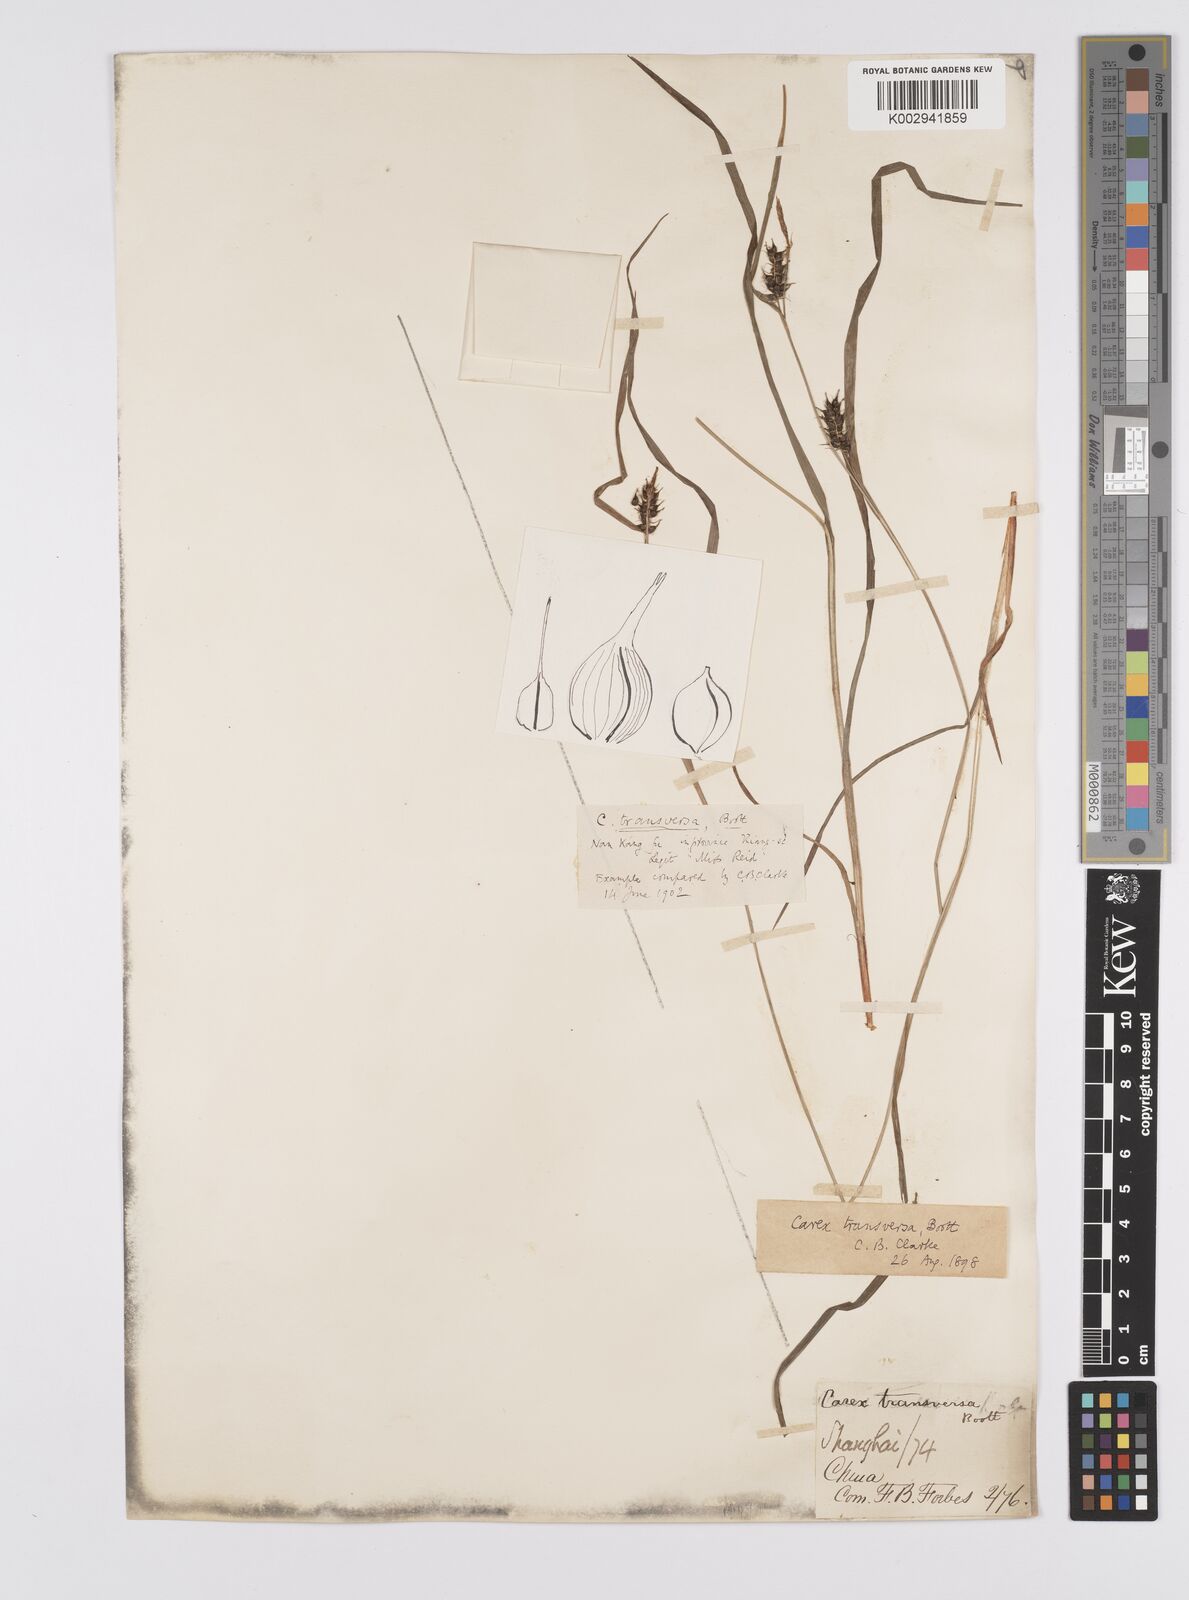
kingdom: Plantae
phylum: Tracheophyta
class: Liliopsida
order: Poales
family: Cyperaceae
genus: Carex
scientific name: Carex brownii
